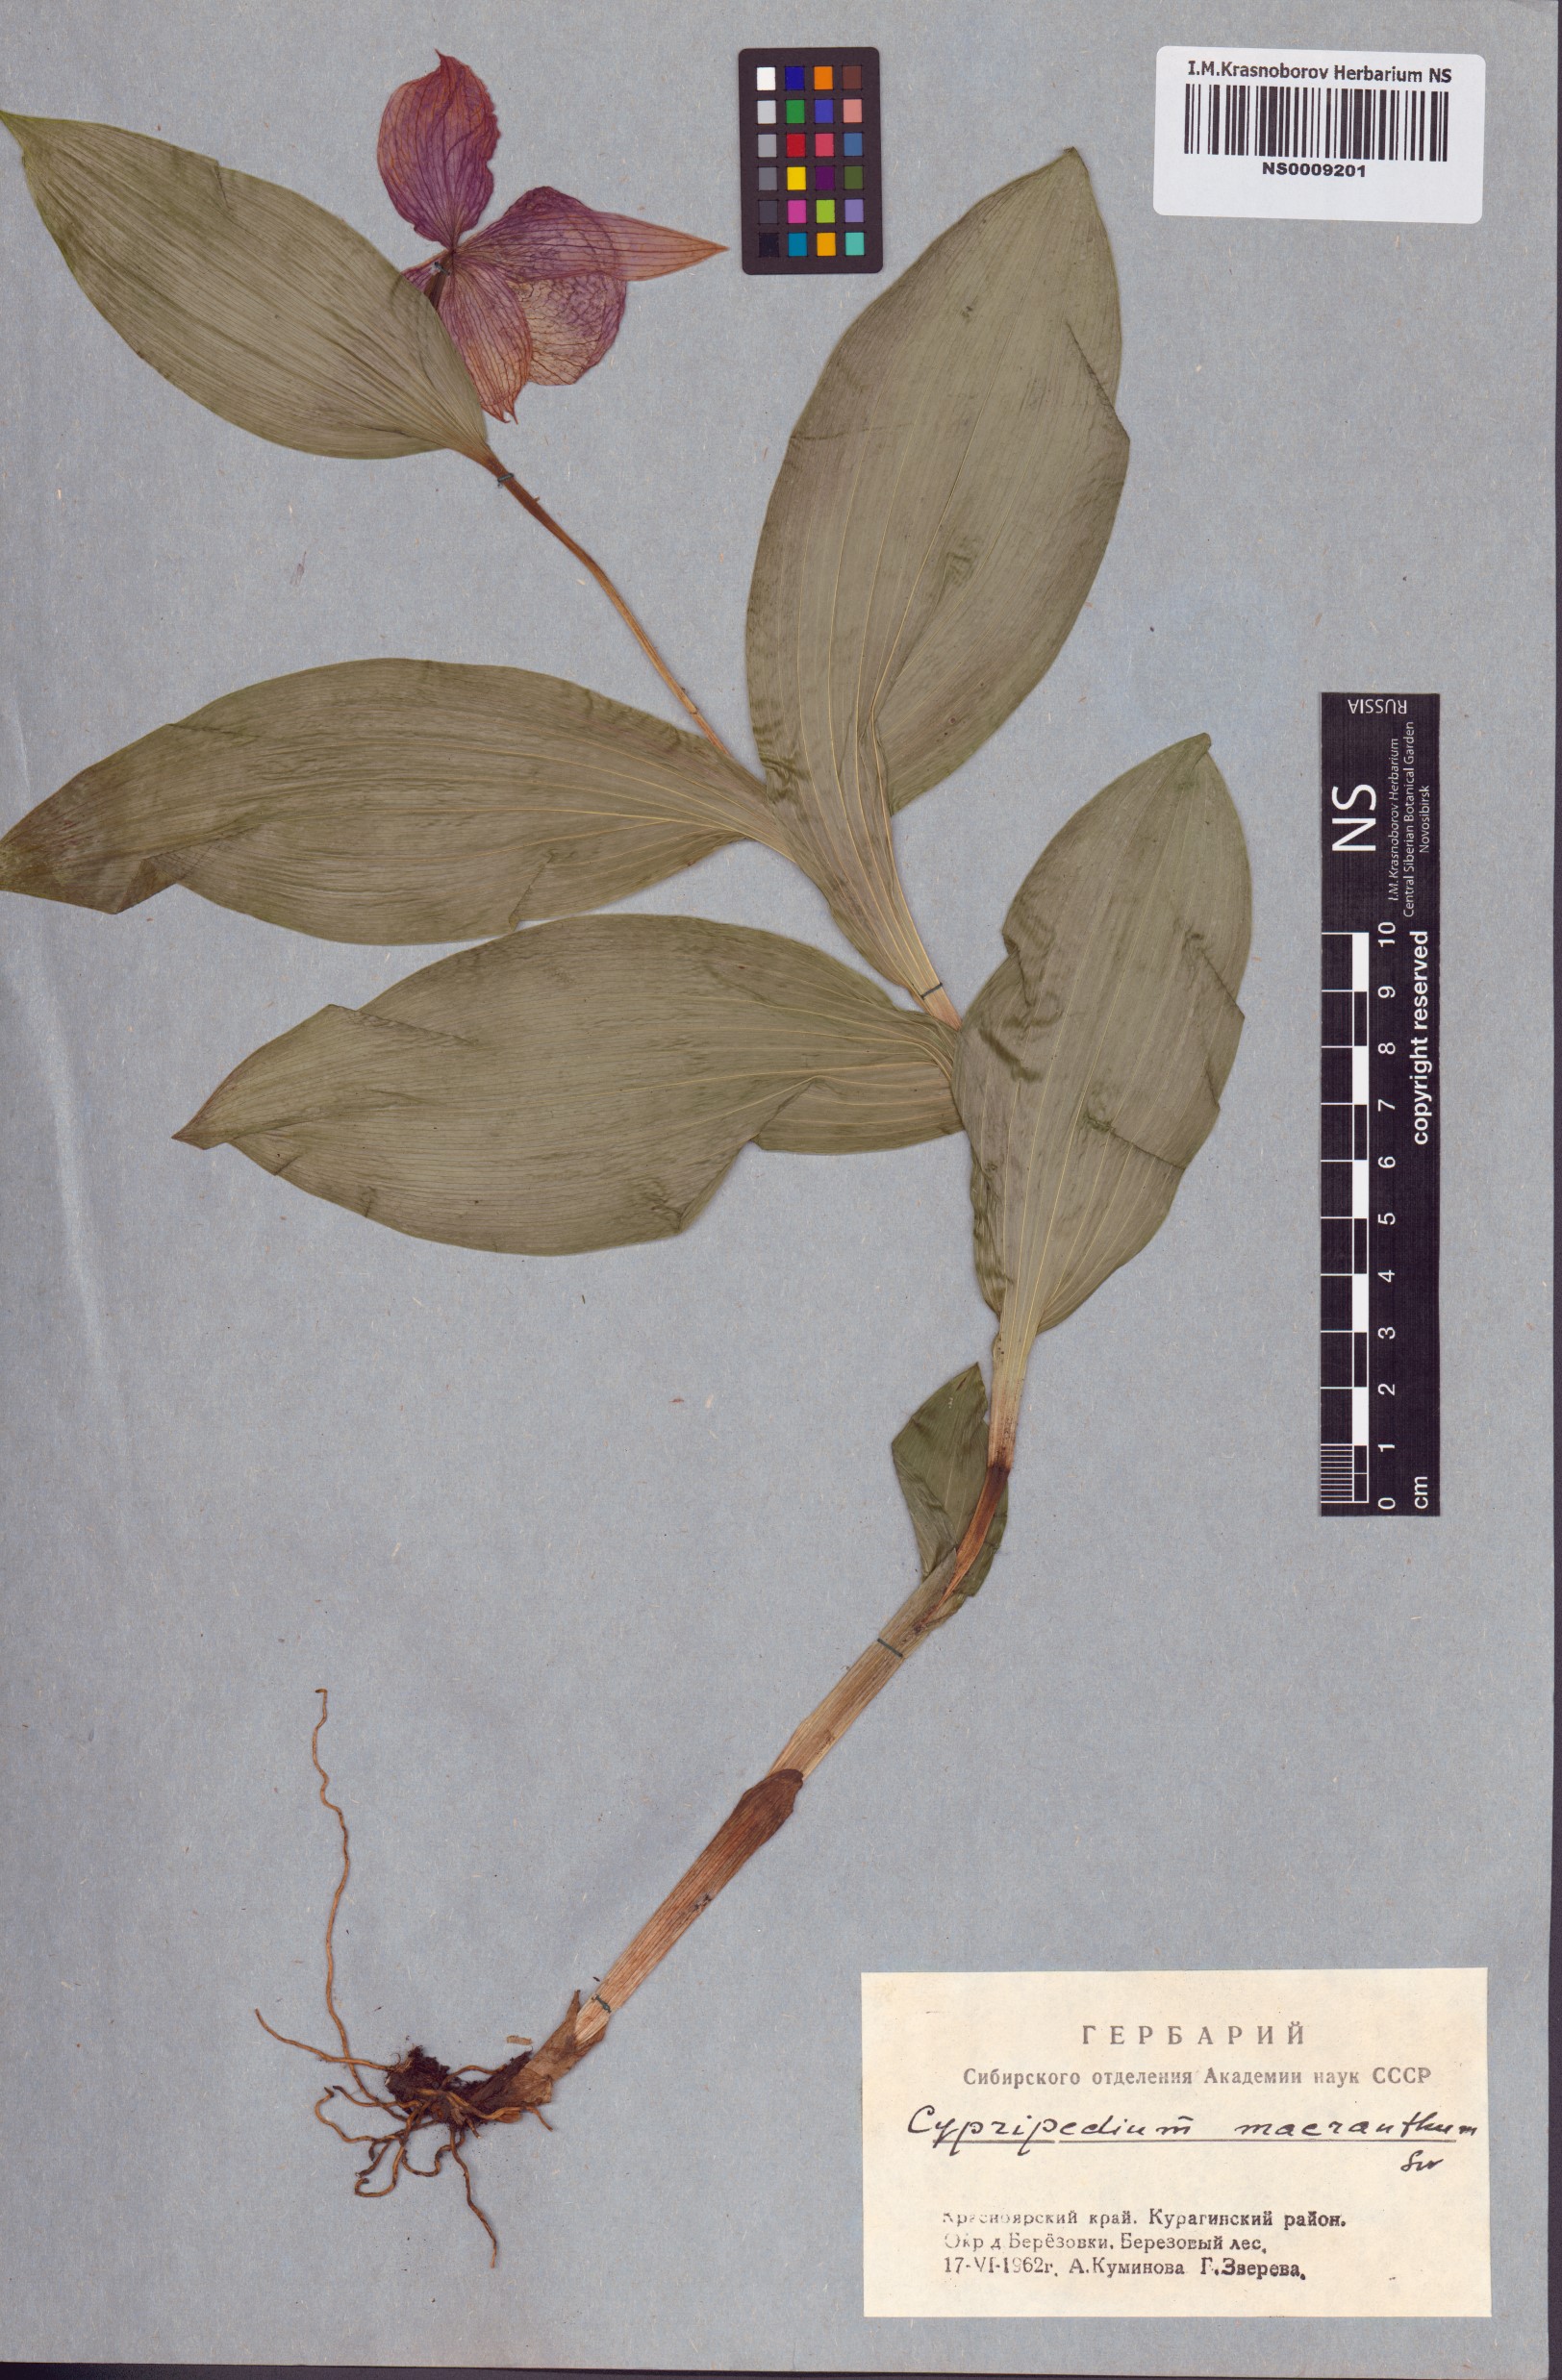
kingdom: Plantae
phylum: Tracheophyta
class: Liliopsida
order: Asparagales
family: Orchidaceae
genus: Cypripedium
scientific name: Cypripedium macranthos
